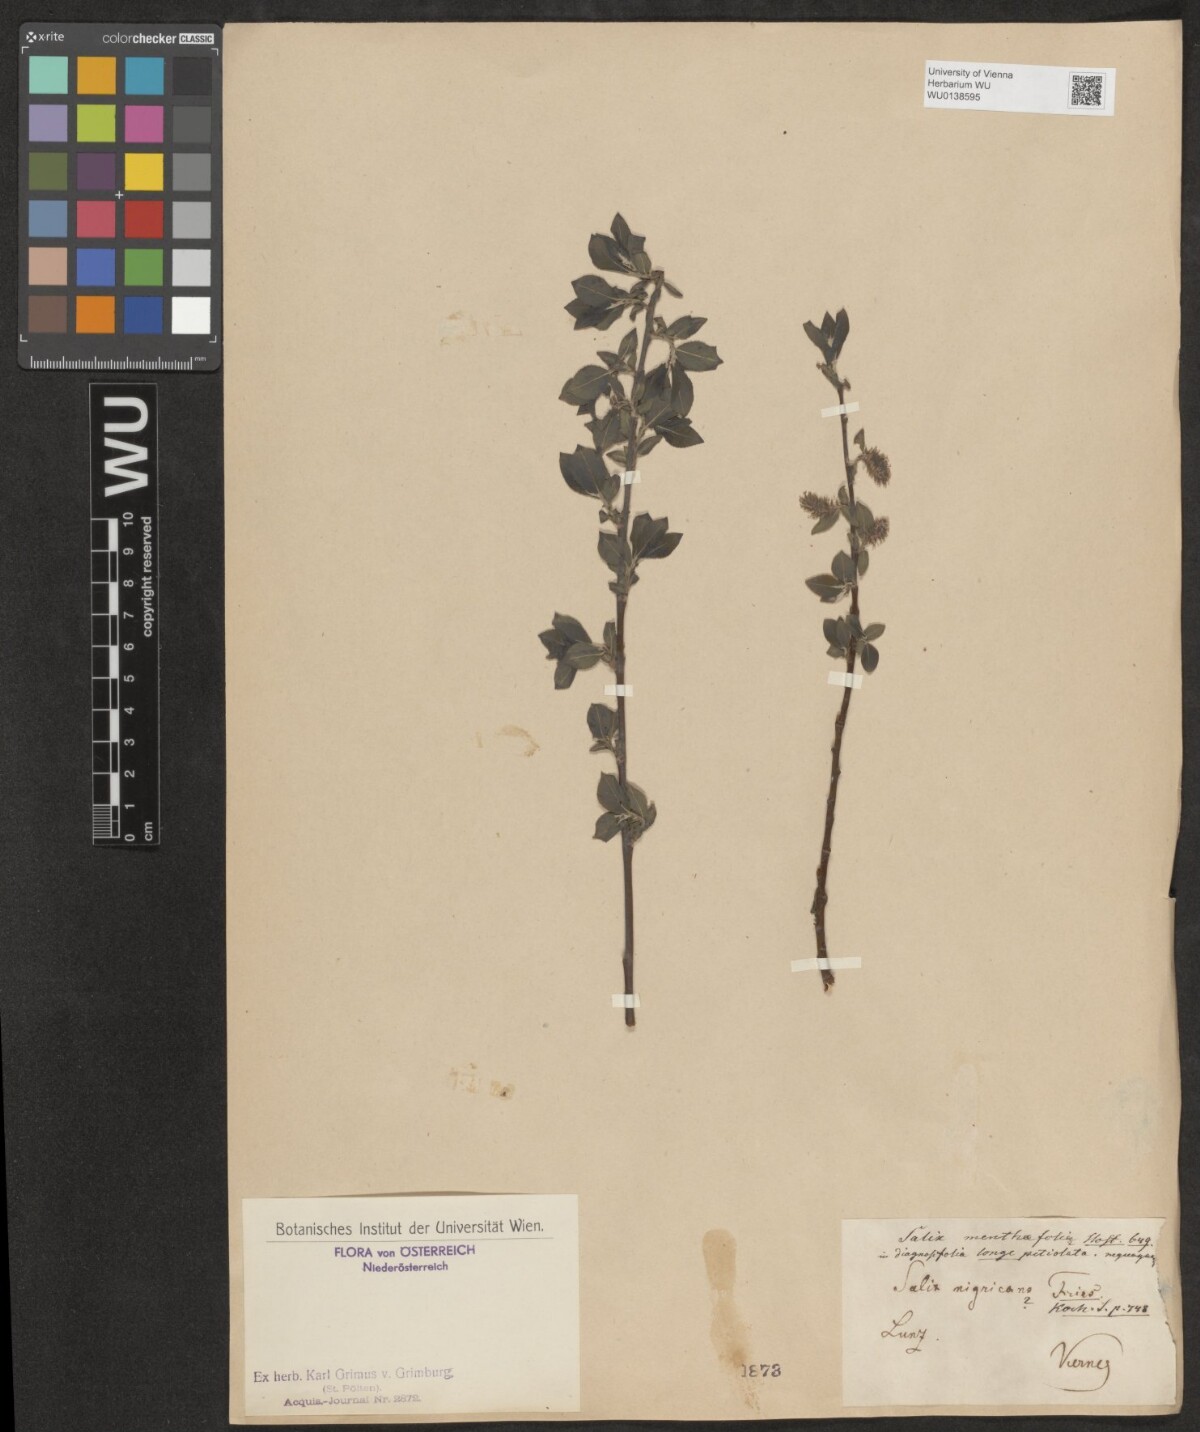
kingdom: Plantae
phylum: Tracheophyta
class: Magnoliopsida
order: Malpighiales
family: Salicaceae
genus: Salix
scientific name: Salix myrsinifolia
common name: Dark-leaved willow
